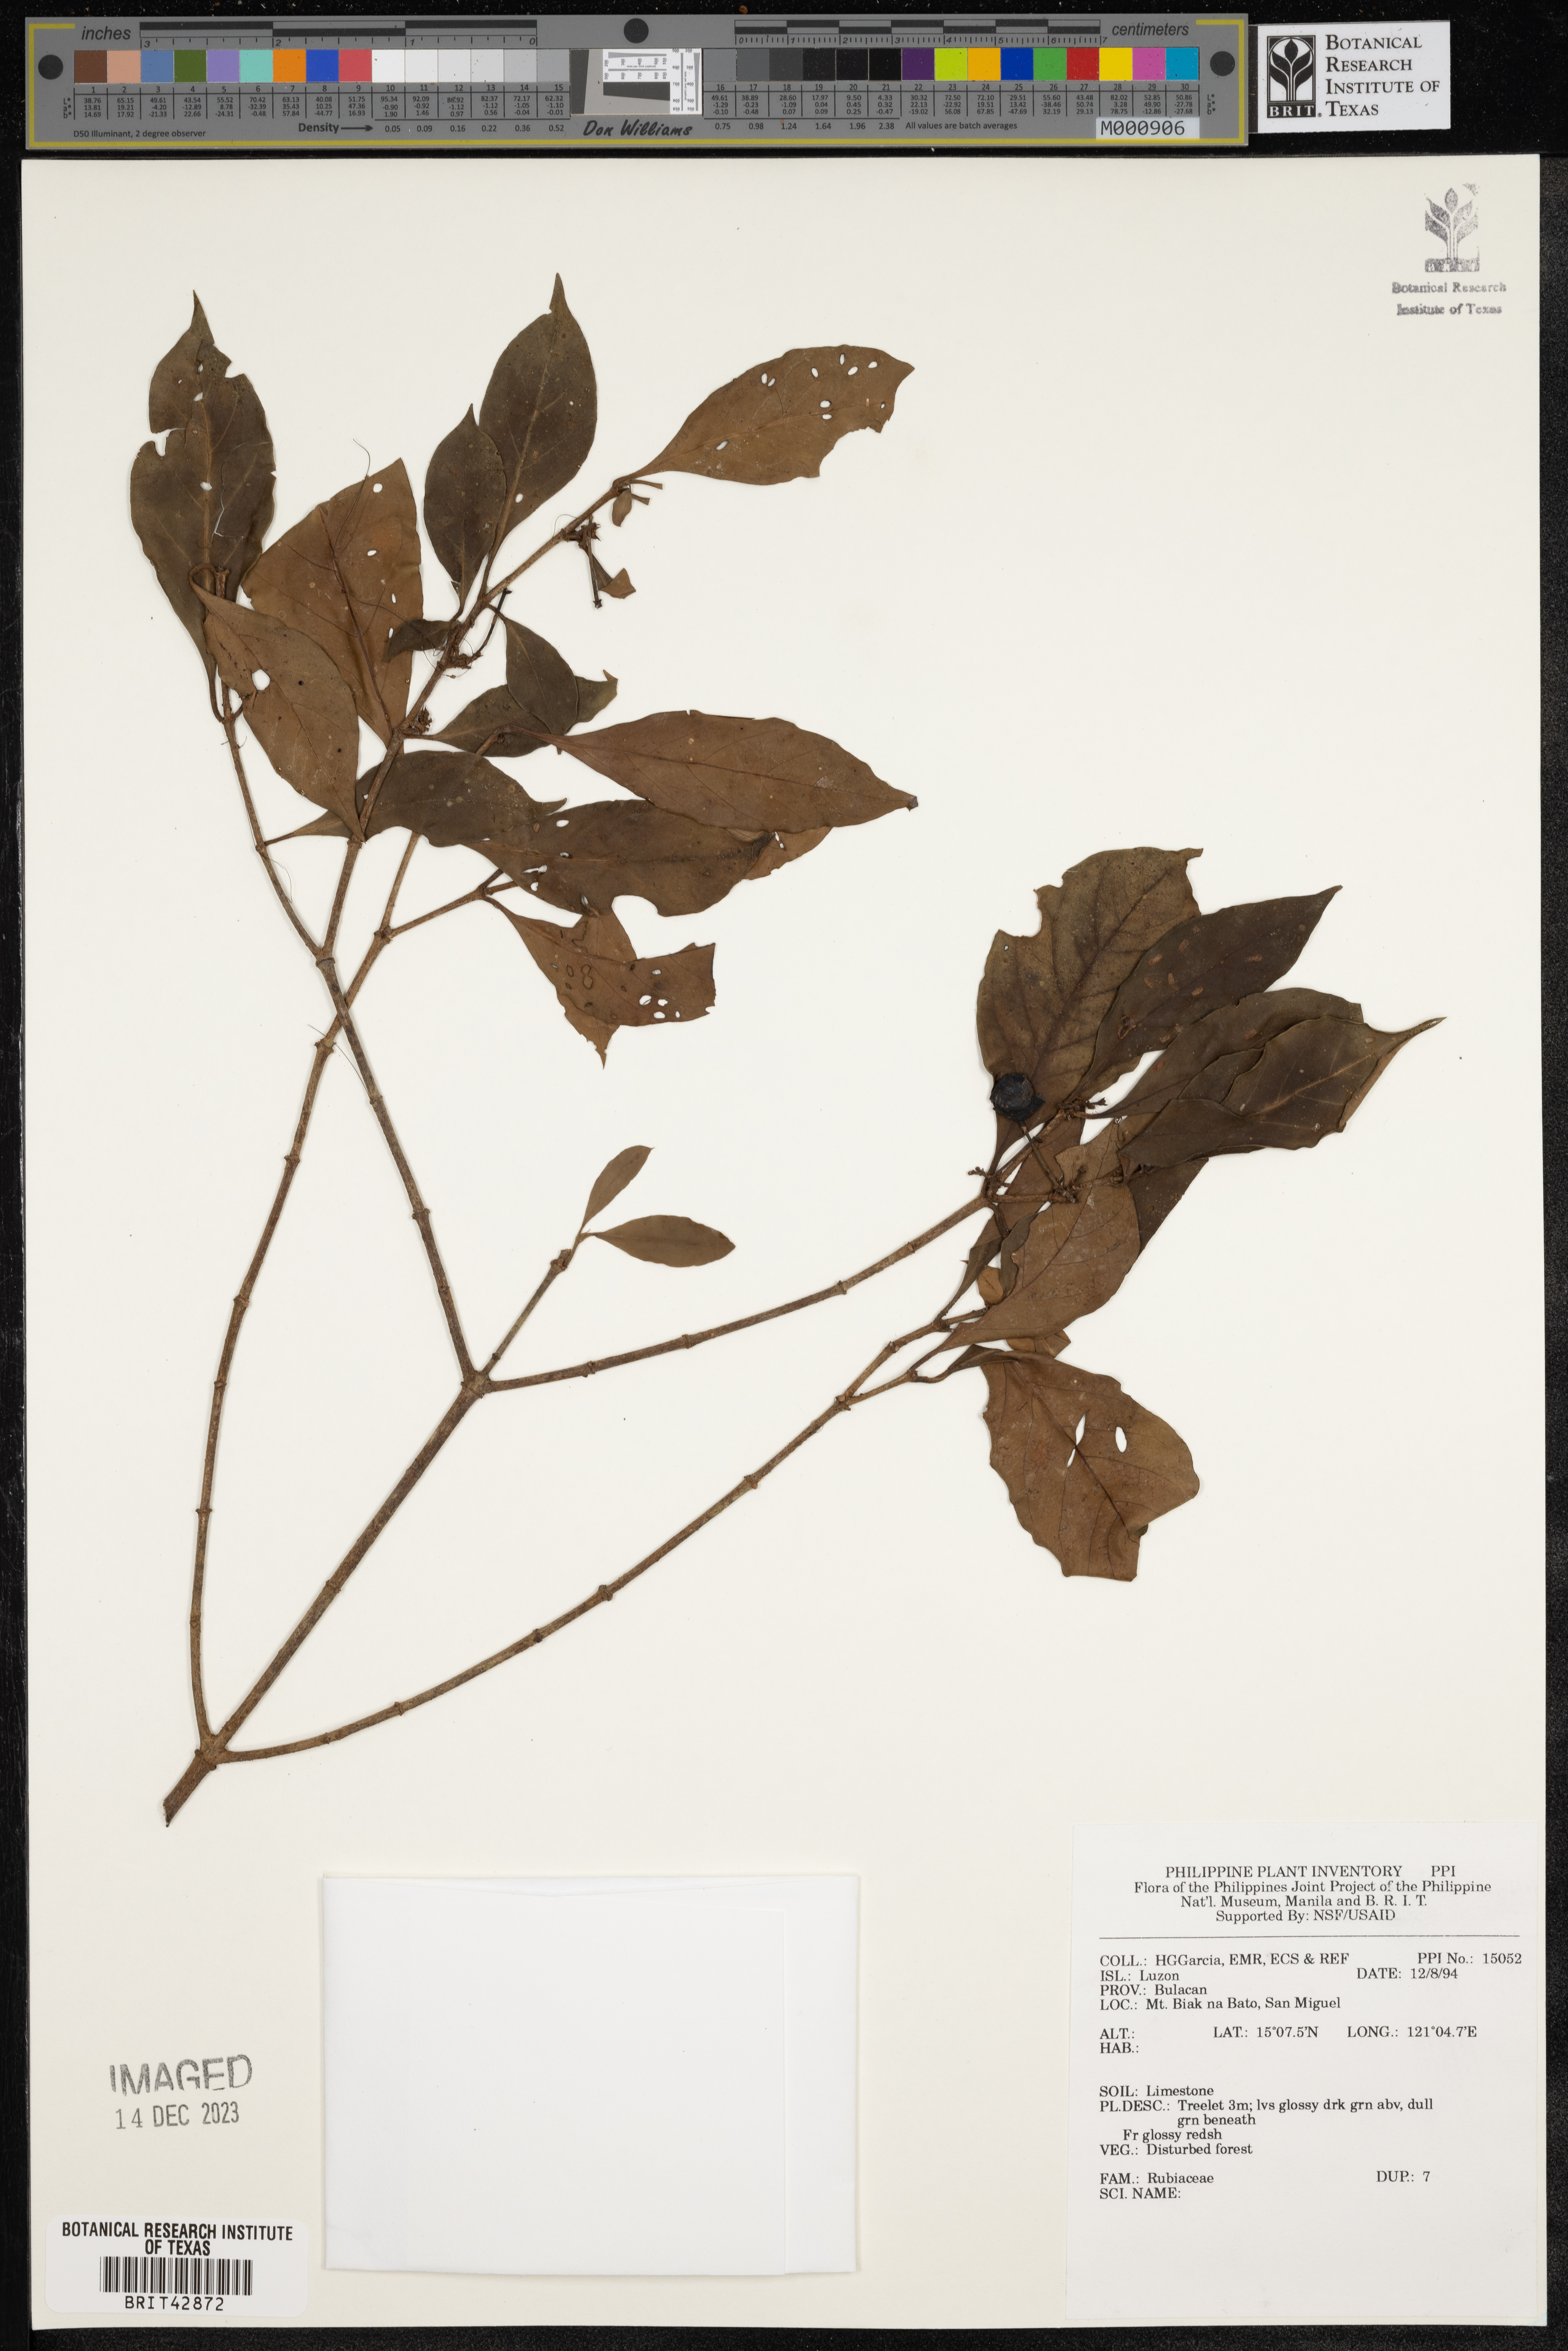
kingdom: Plantae
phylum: Tracheophyta
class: Magnoliopsida
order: Gentianales
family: Rubiaceae
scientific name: Rubiaceae
